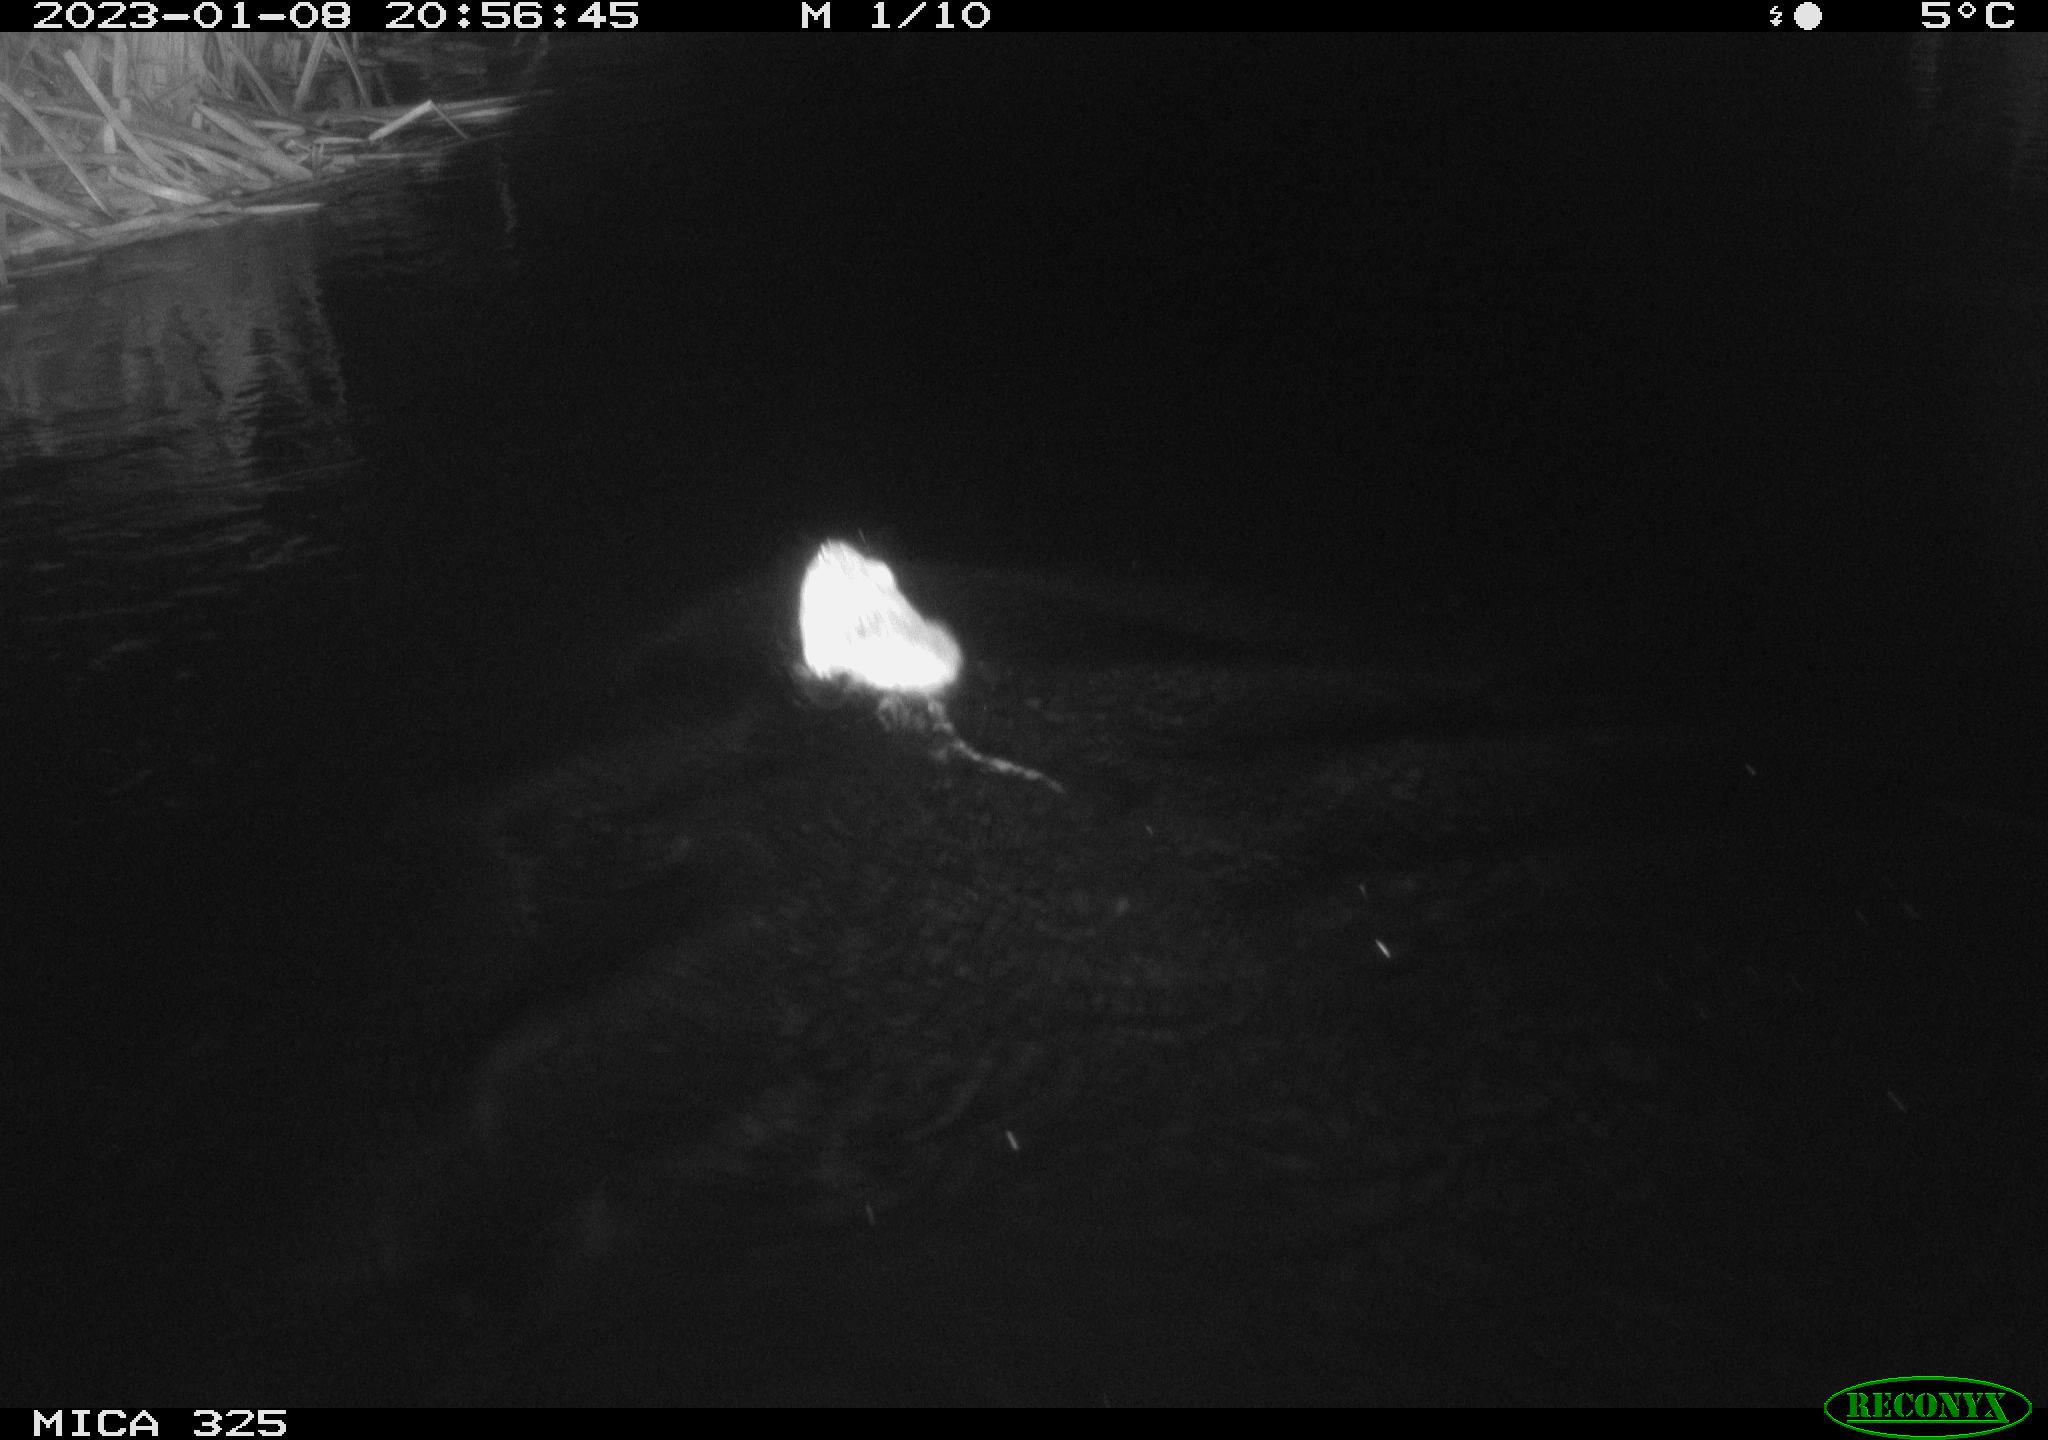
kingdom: Animalia
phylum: Chordata
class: Mammalia
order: Rodentia
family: Cricetidae
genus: Ondatra
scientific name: Ondatra zibethicus
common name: Muskrat
